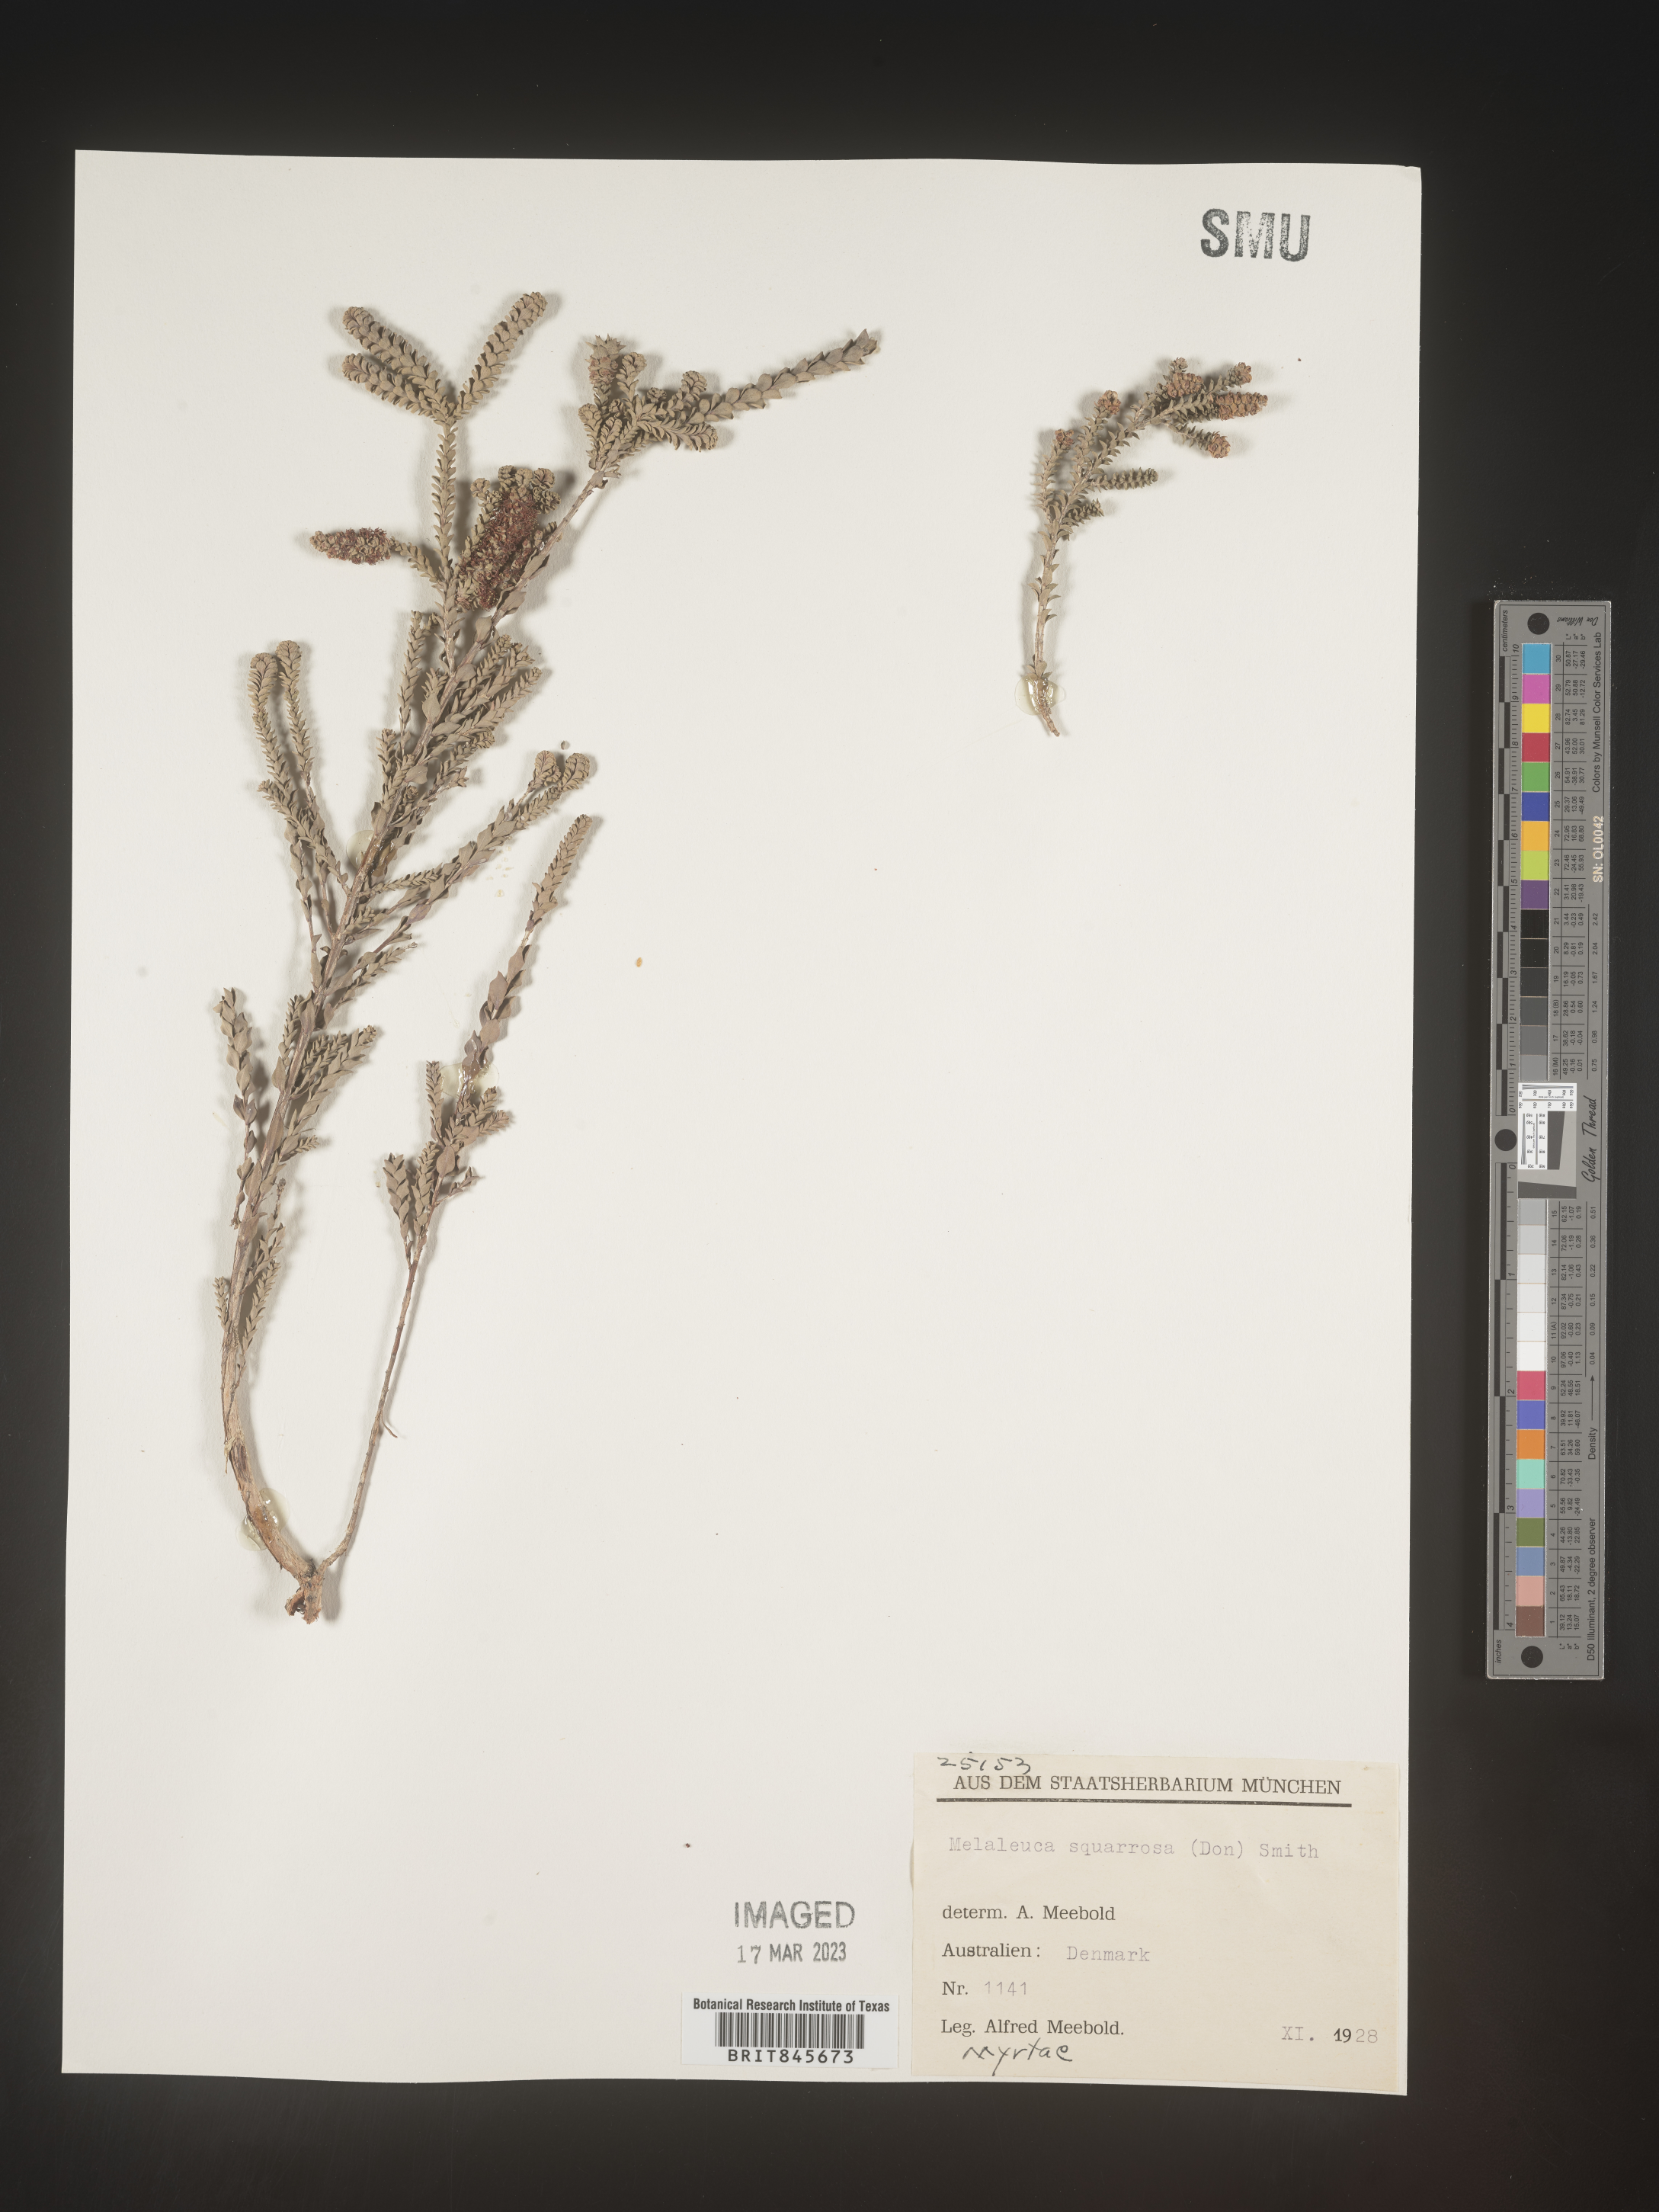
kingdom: Plantae
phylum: Tracheophyta
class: Magnoliopsida
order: Myrtales
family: Myrtaceae
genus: Melaleuca
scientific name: Melaleuca
